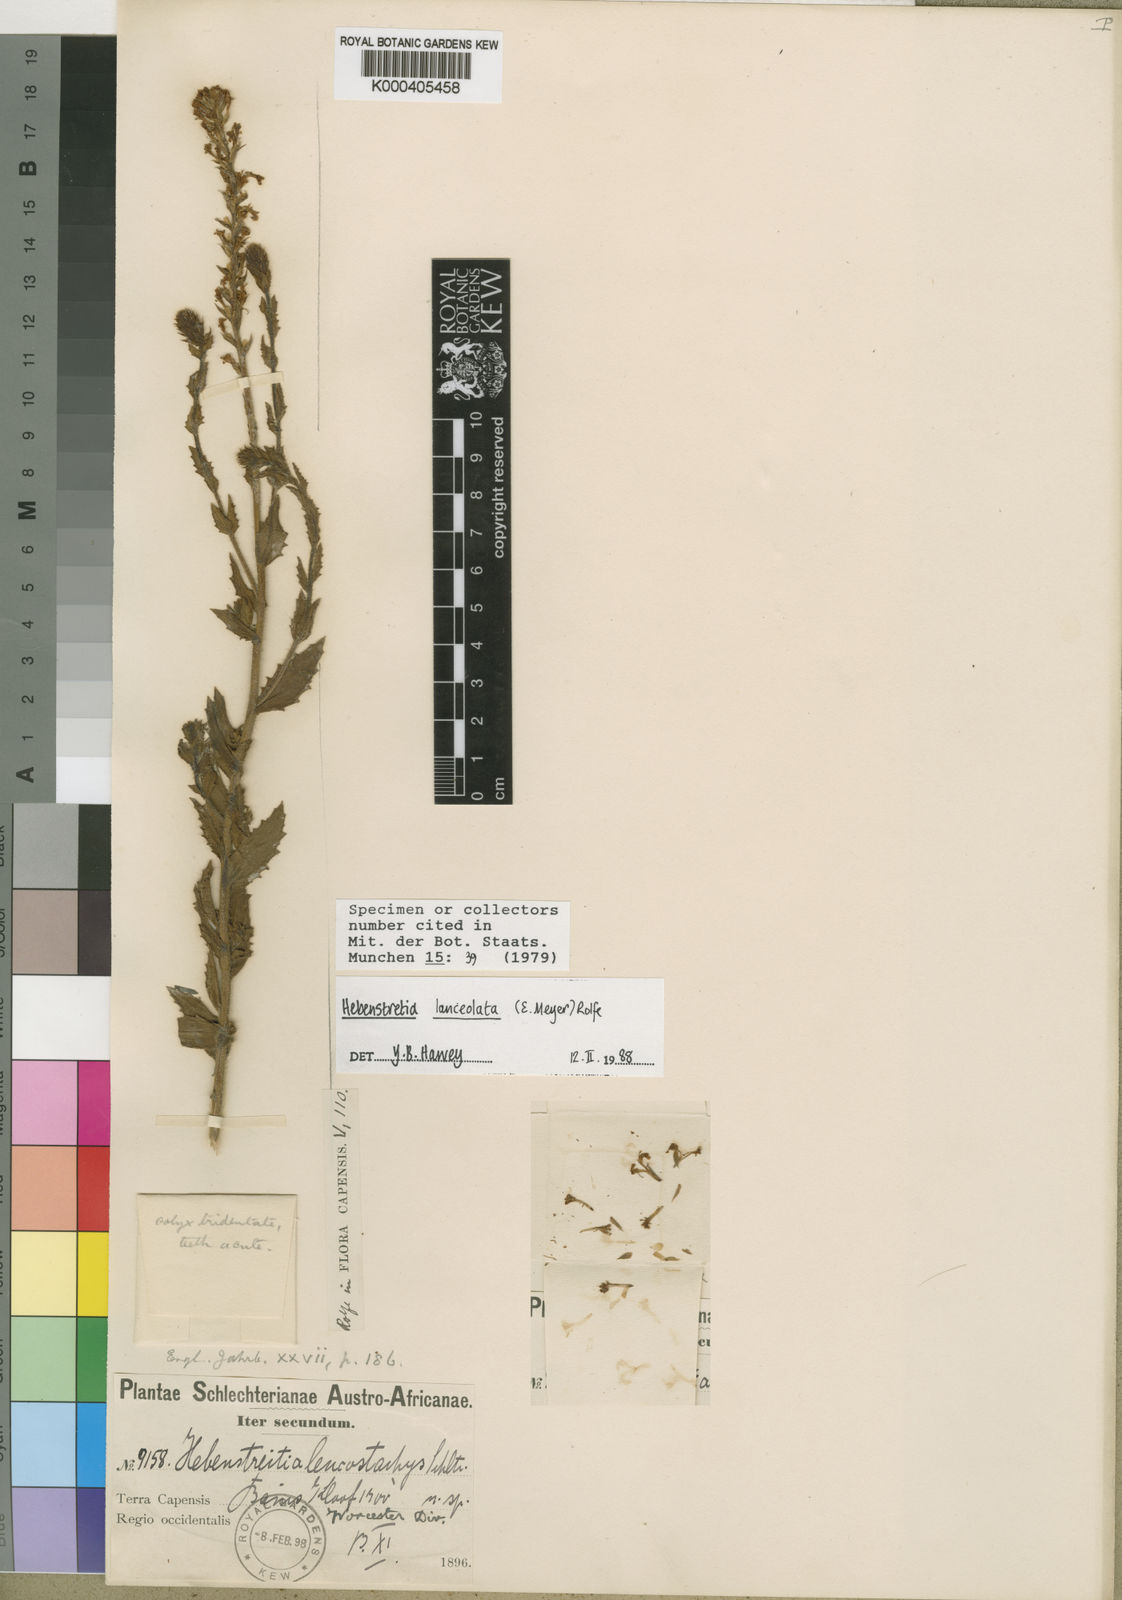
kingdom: Plantae
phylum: Tracheophyta
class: Magnoliopsida
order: Lamiales
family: Scrophulariaceae
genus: Hebenstretia
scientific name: Hebenstretia lanceolata
